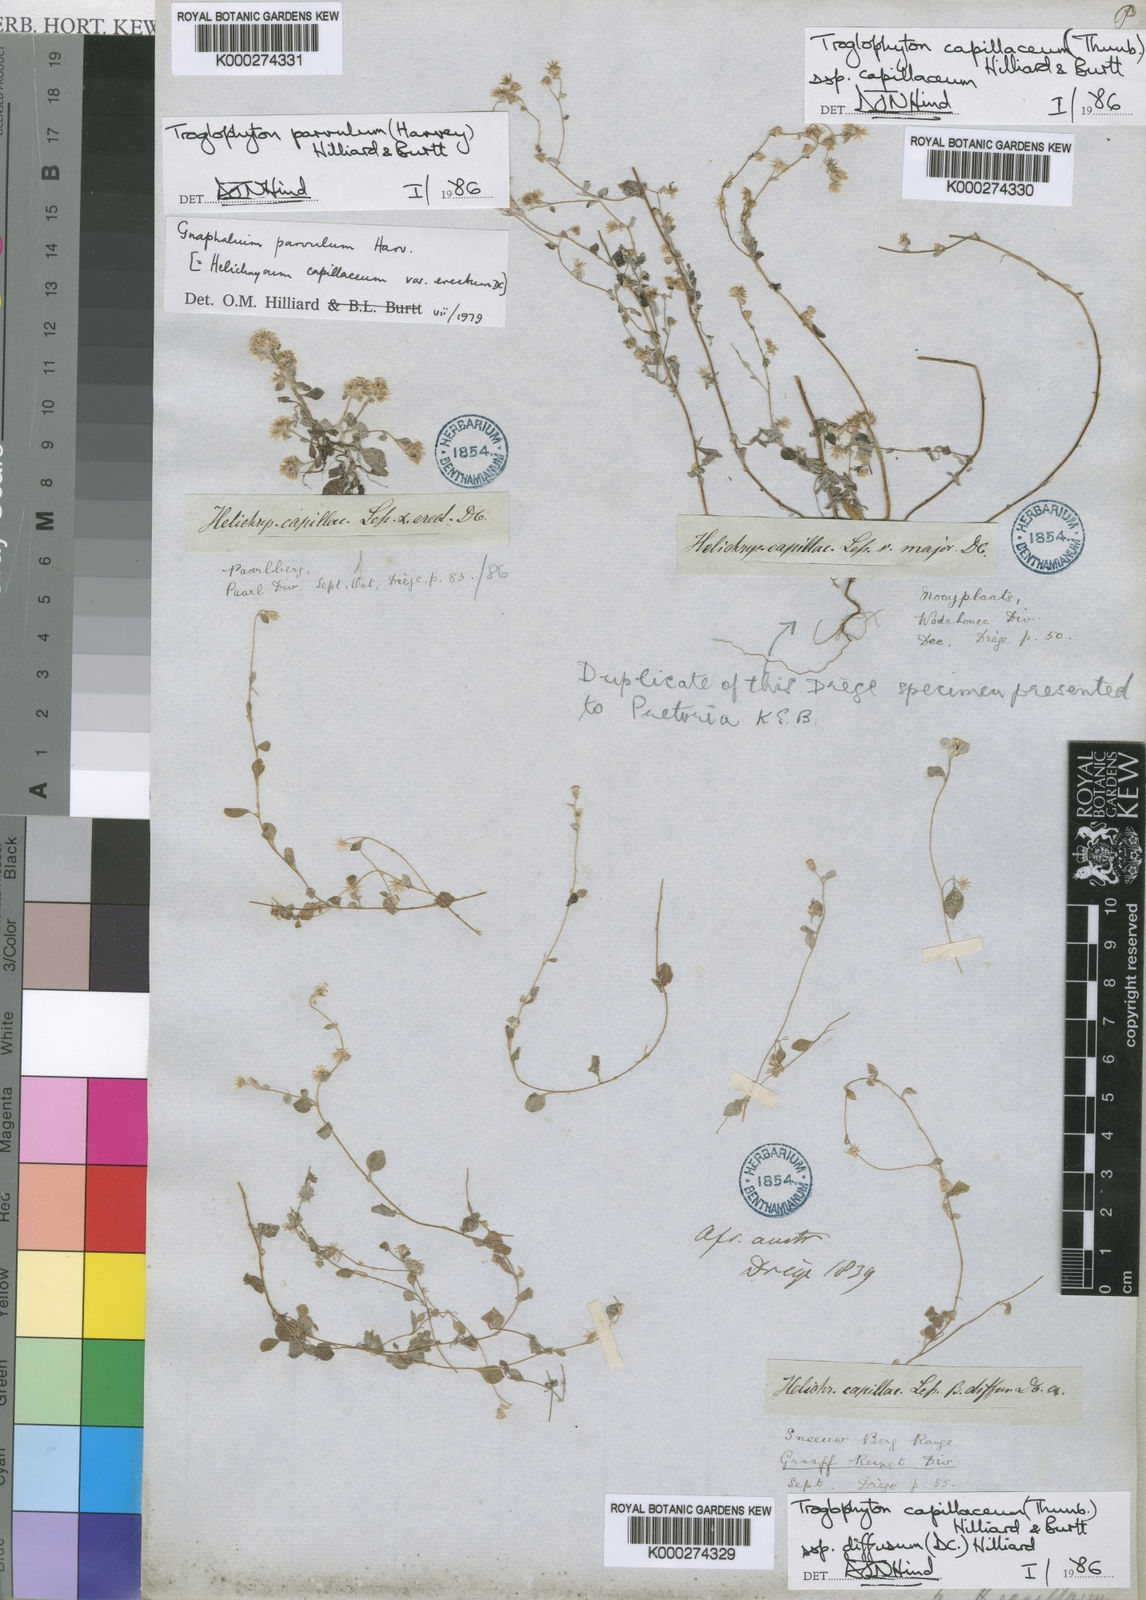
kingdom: Plantae
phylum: Tracheophyta
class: Magnoliopsida
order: Asterales
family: Asteraceae
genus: Troglophyton
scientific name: Troglophyton capillaceum
